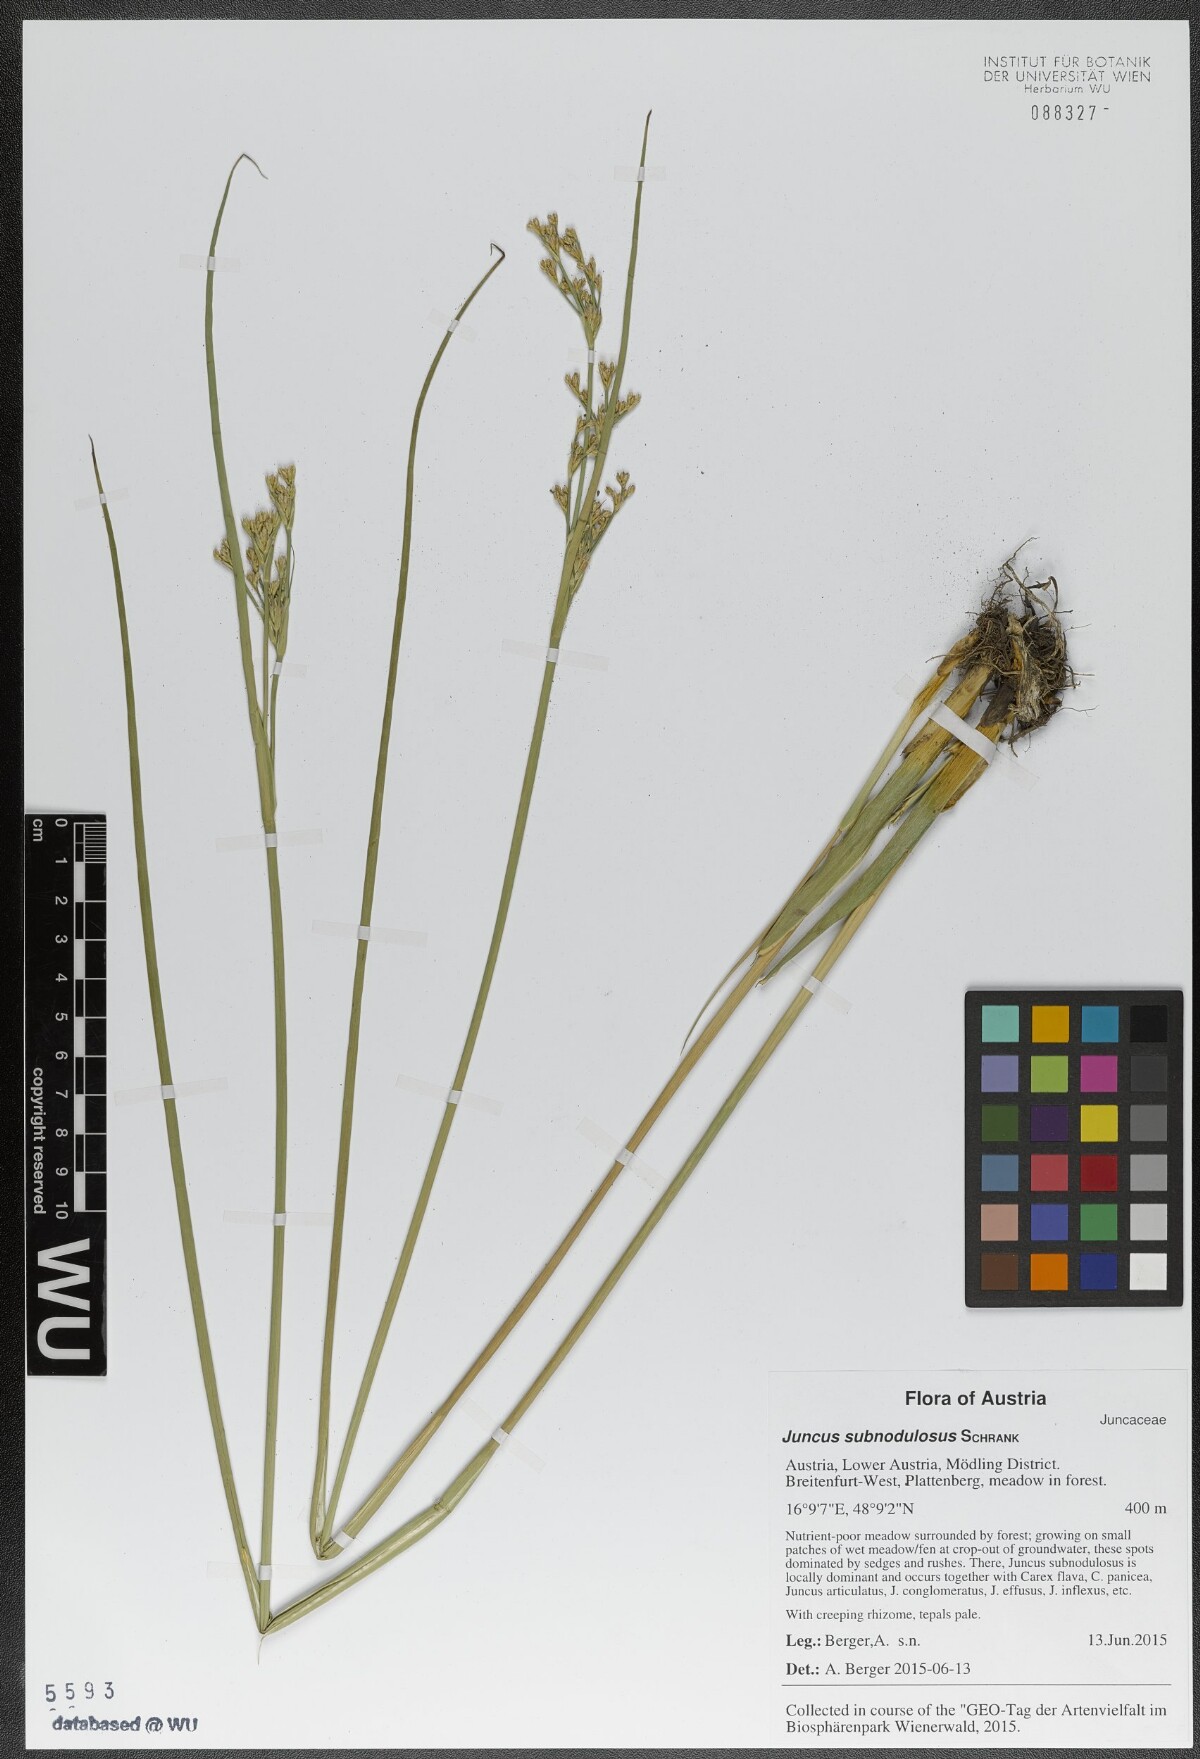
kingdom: Plantae
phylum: Tracheophyta
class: Liliopsida
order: Poales
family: Juncaceae
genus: Juncus
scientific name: Juncus subnodulosus
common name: Blunt-flowered rush
